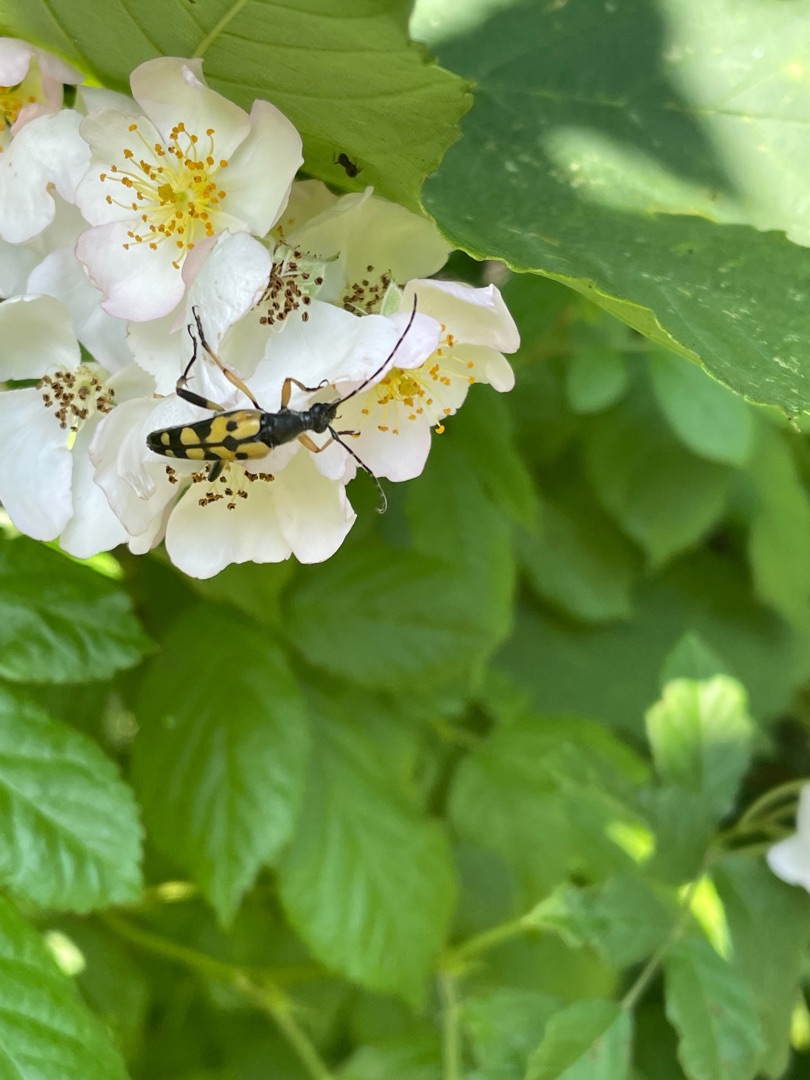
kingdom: Animalia
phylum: Arthropoda
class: Insecta
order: Coleoptera
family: Cerambycidae
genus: Rutpela
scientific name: Rutpela maculata
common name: Sydlig blomsterbuk
